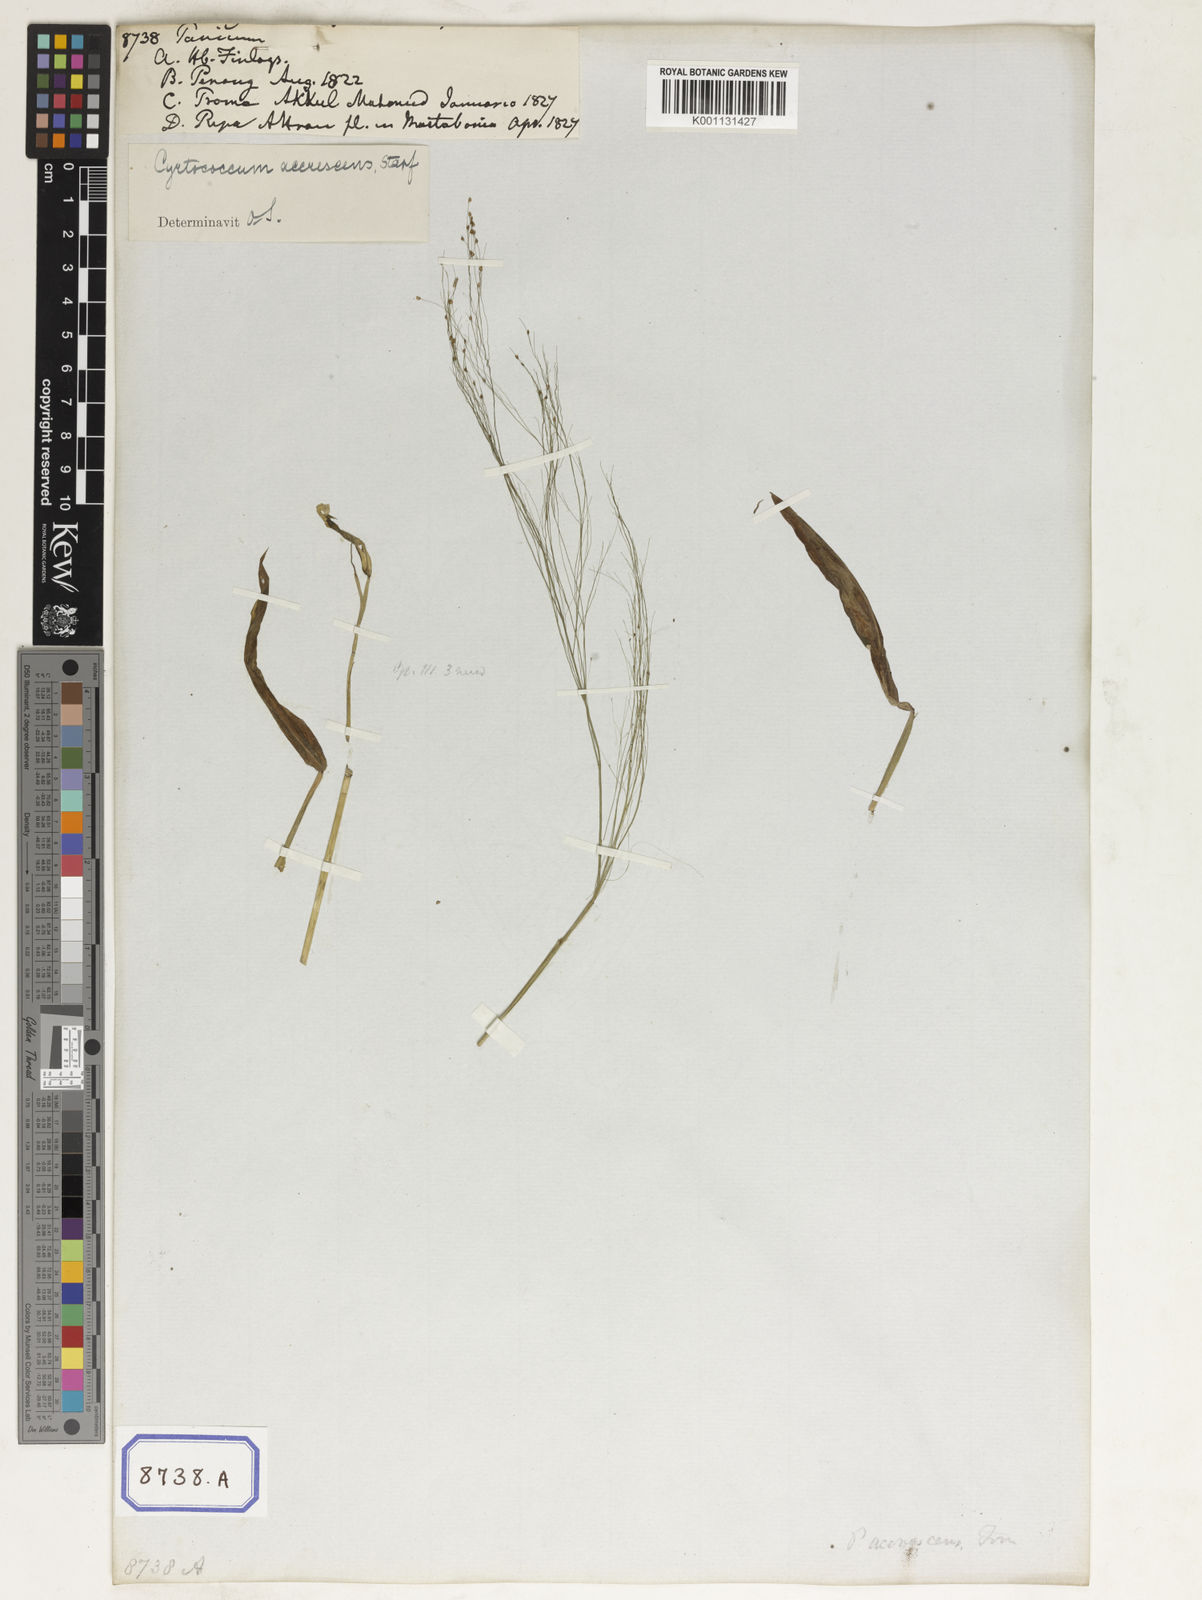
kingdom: Plantae
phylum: Tracheophyta
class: Liliopsida
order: Poales
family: Poaceae
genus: Panicum
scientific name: Panicum
